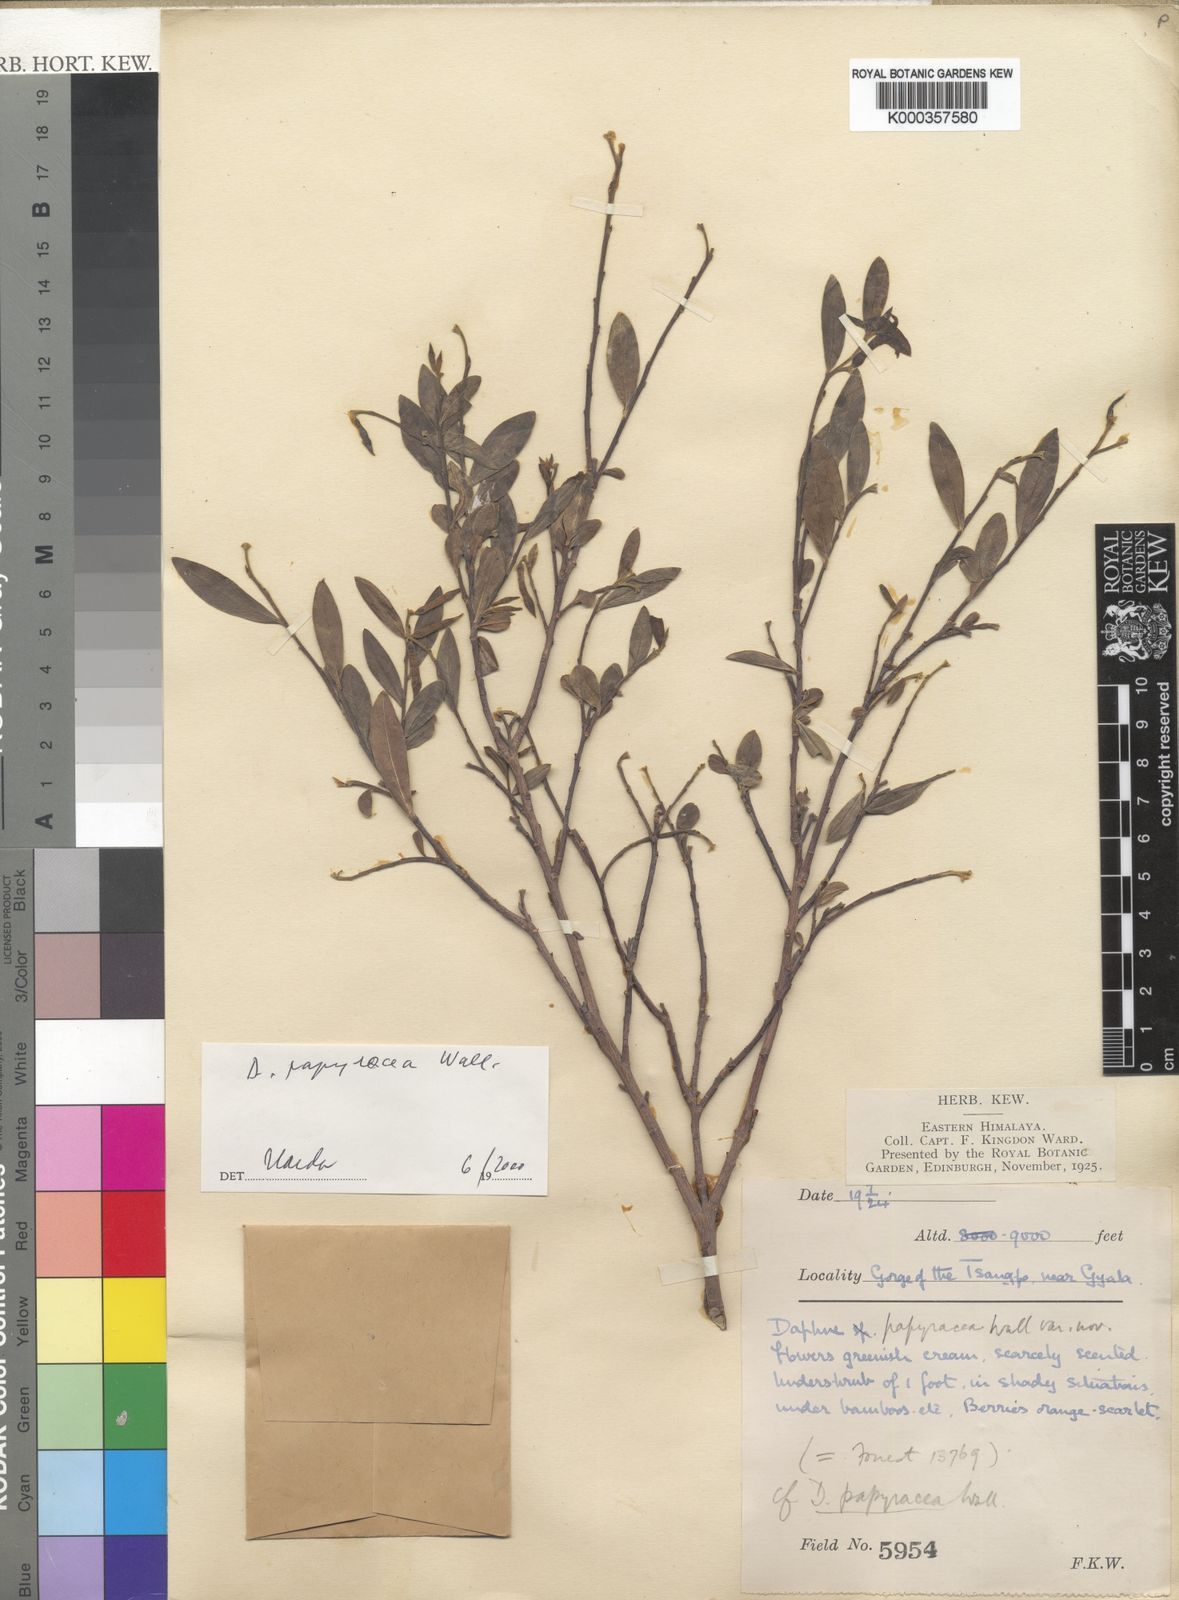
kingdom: Plantae
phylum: Tracheophyta
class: Magnoliopsida
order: Malvales
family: Thymelaeaceae
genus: Daphne
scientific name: Daphne
